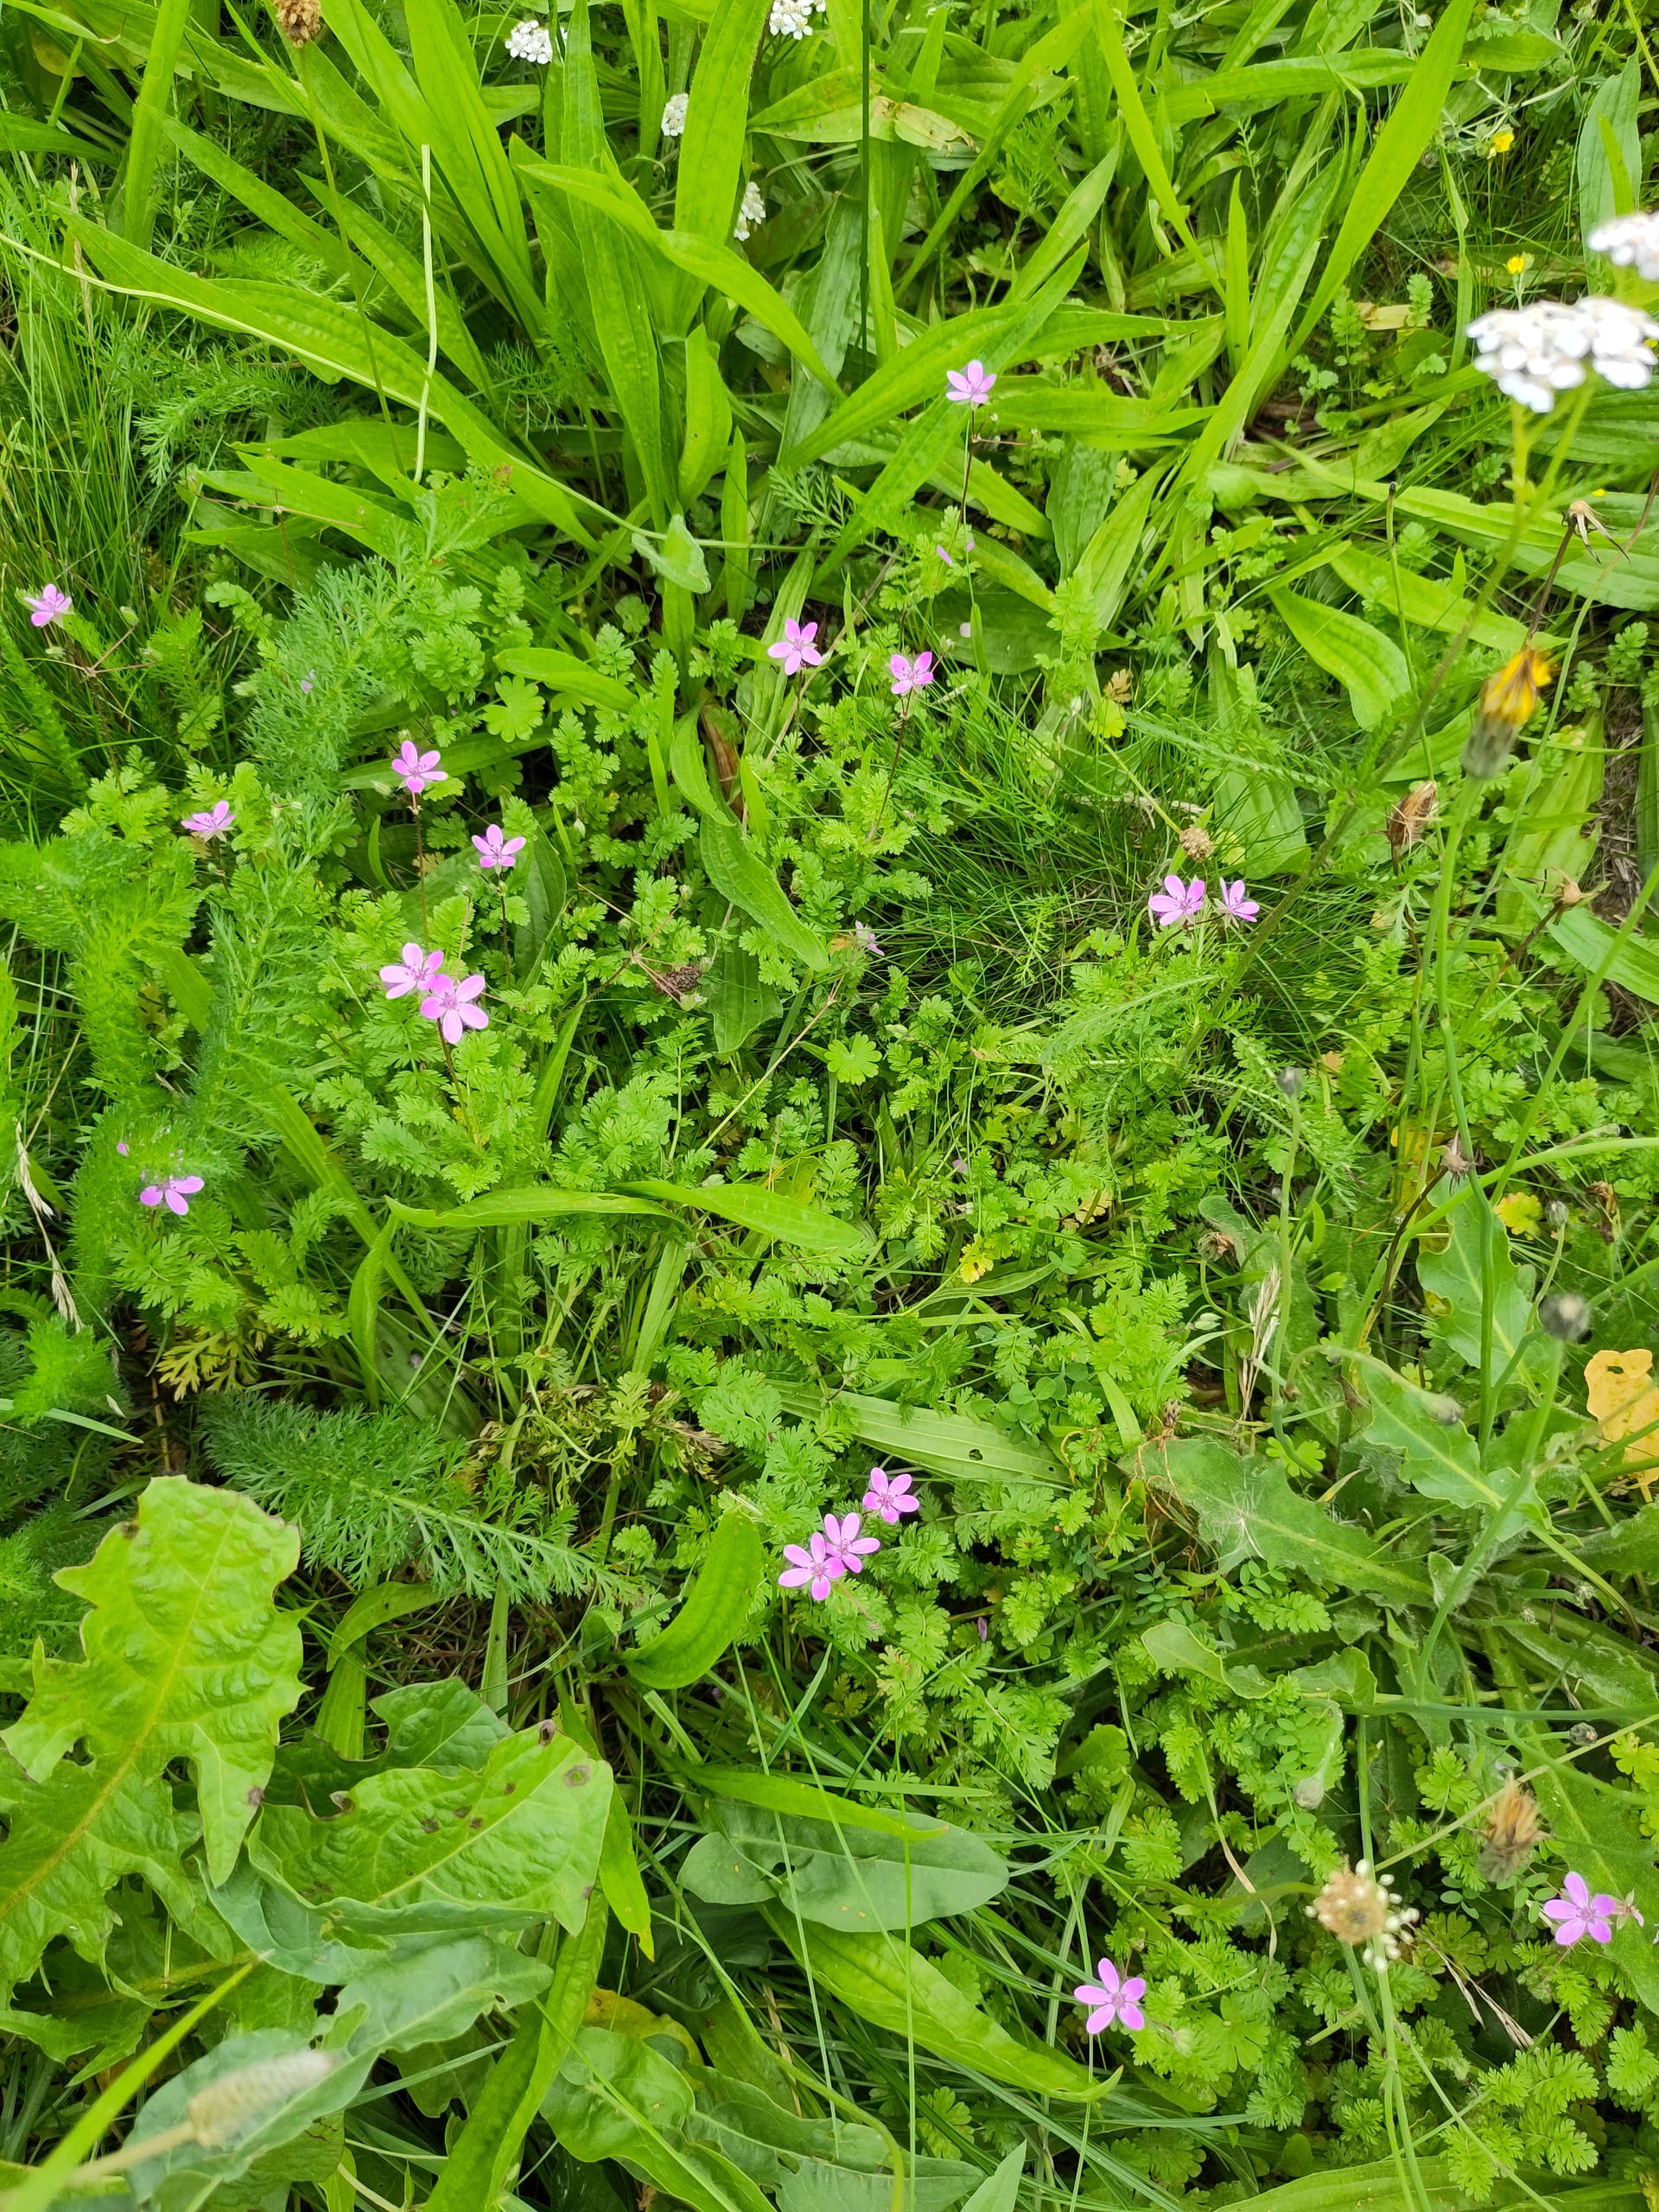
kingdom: Plantae
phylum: Tracheophyta
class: Magnoliopsida
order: Geraniales
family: Geraniaceae
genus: Erodium
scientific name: Erodium cicutarium
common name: Hejrenæb
